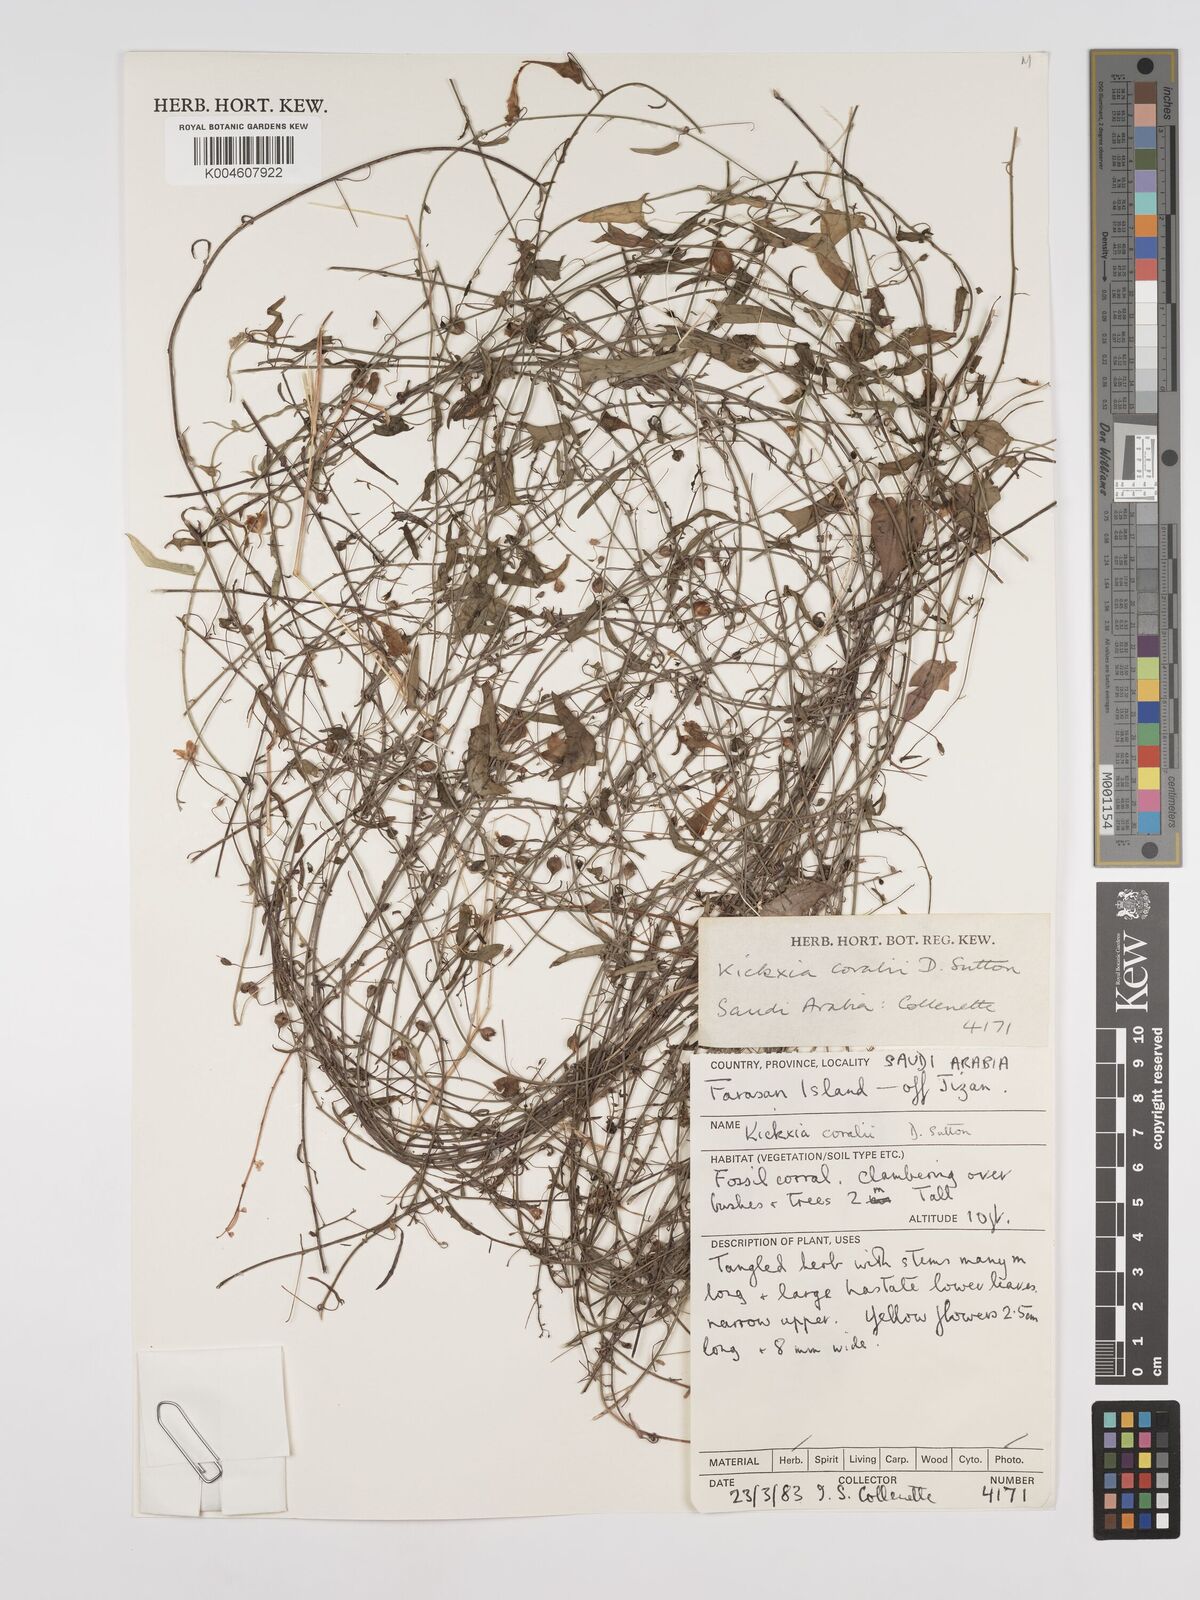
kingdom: Plantae
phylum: Tracheophyta
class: Magnoliopsida
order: Lamiales
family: Plantaginaceae
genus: Kickxia
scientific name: Kickxia
